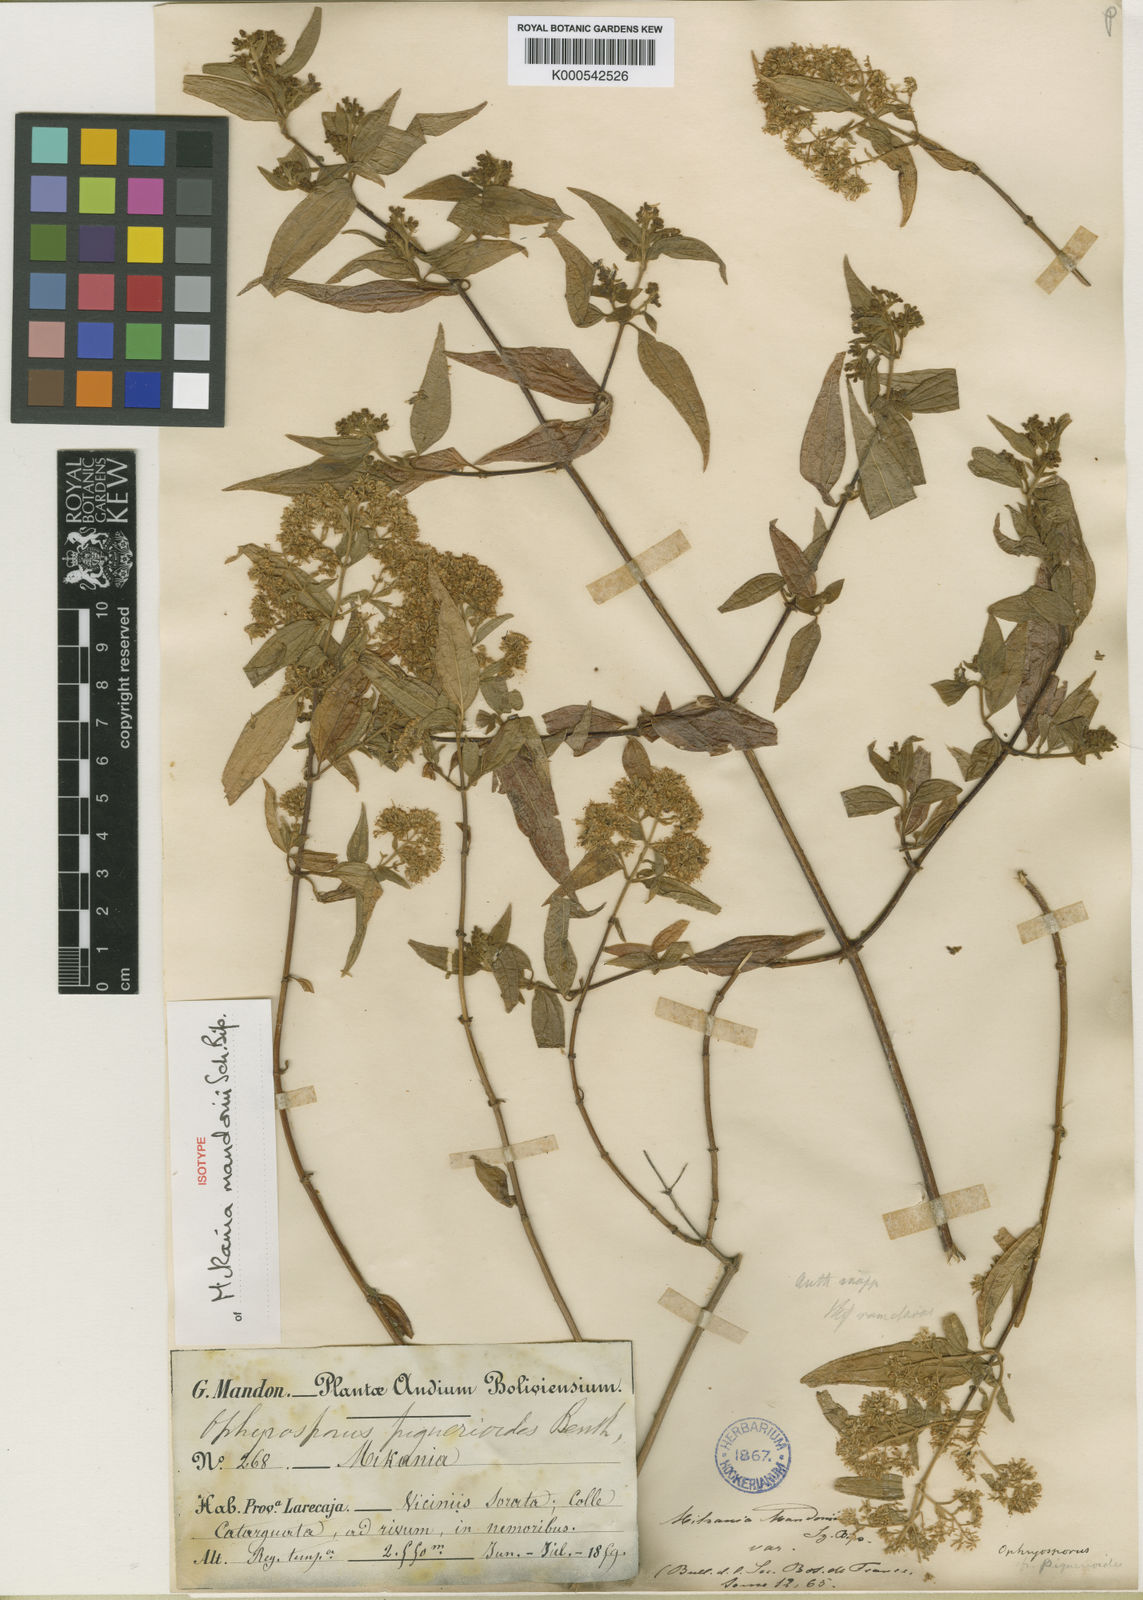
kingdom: Plantae
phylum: Tracheophyta
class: Magnoliopsida
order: Asterales
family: Asteraceae
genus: Ophryosporus
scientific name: Ophryosporus
